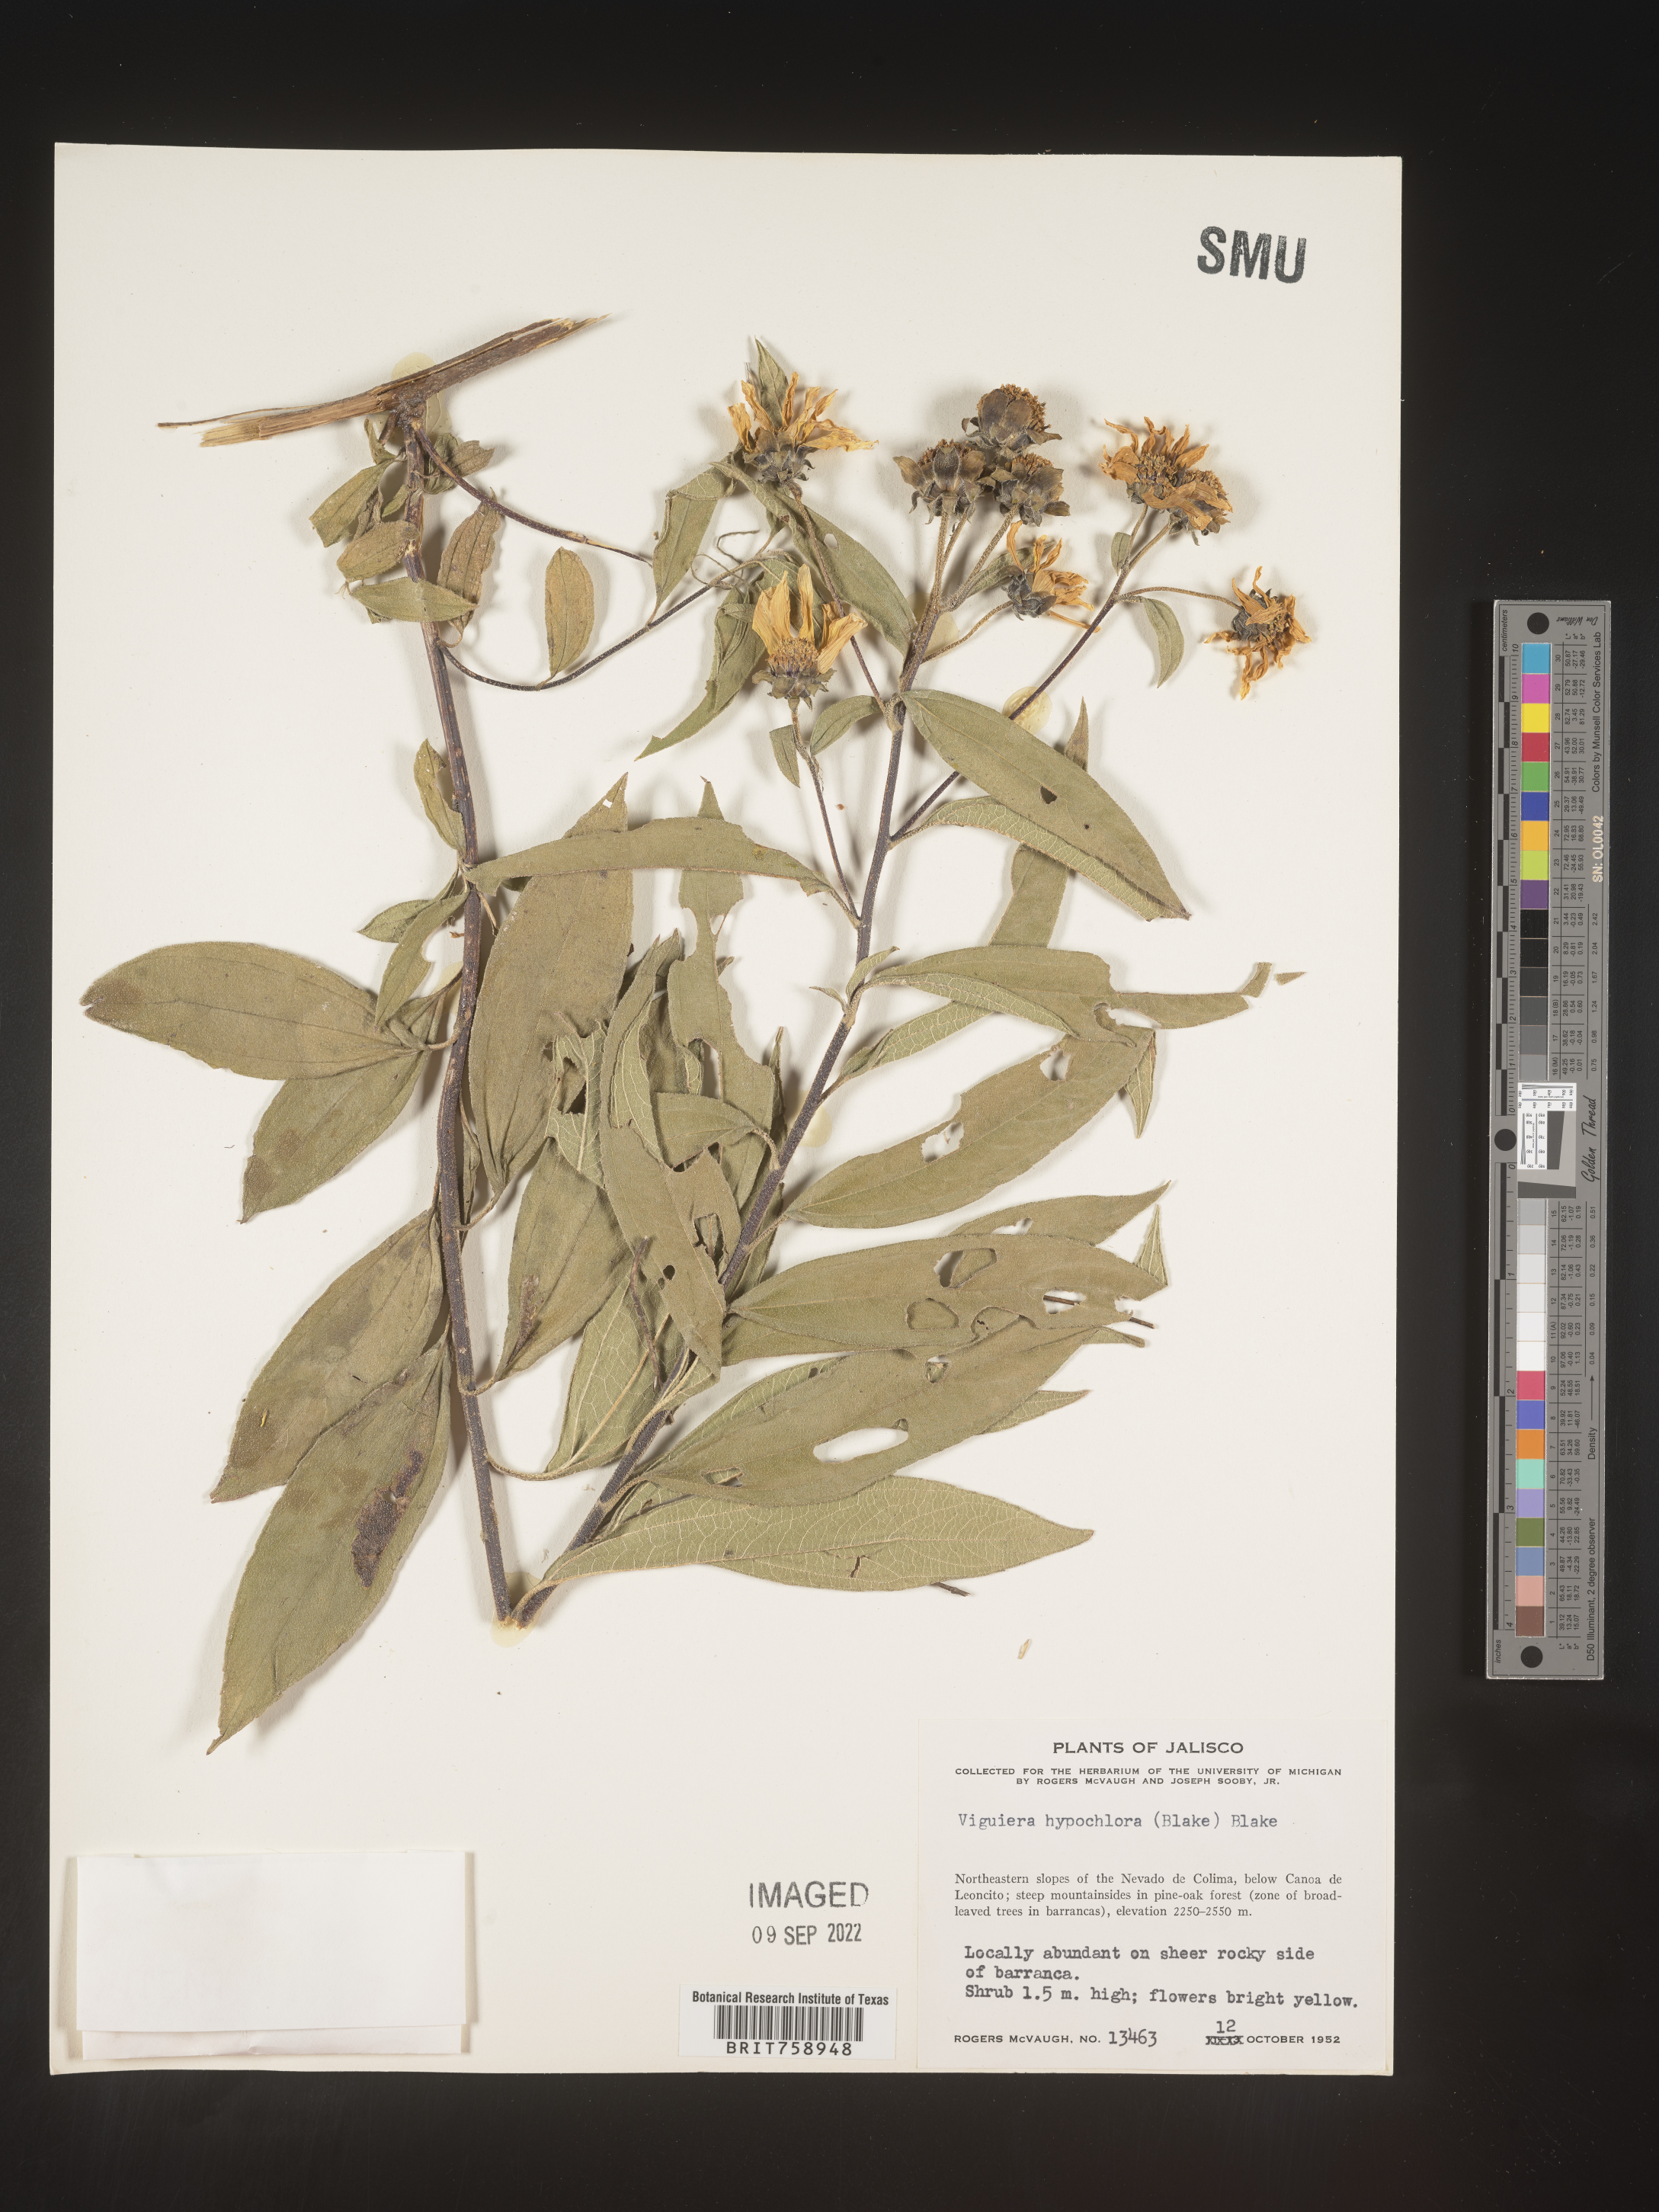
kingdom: Plantae
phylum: Tracheophyta
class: Magnoliopsida
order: Asterales
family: Asteraceae
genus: Viguiera
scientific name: Viguiera
